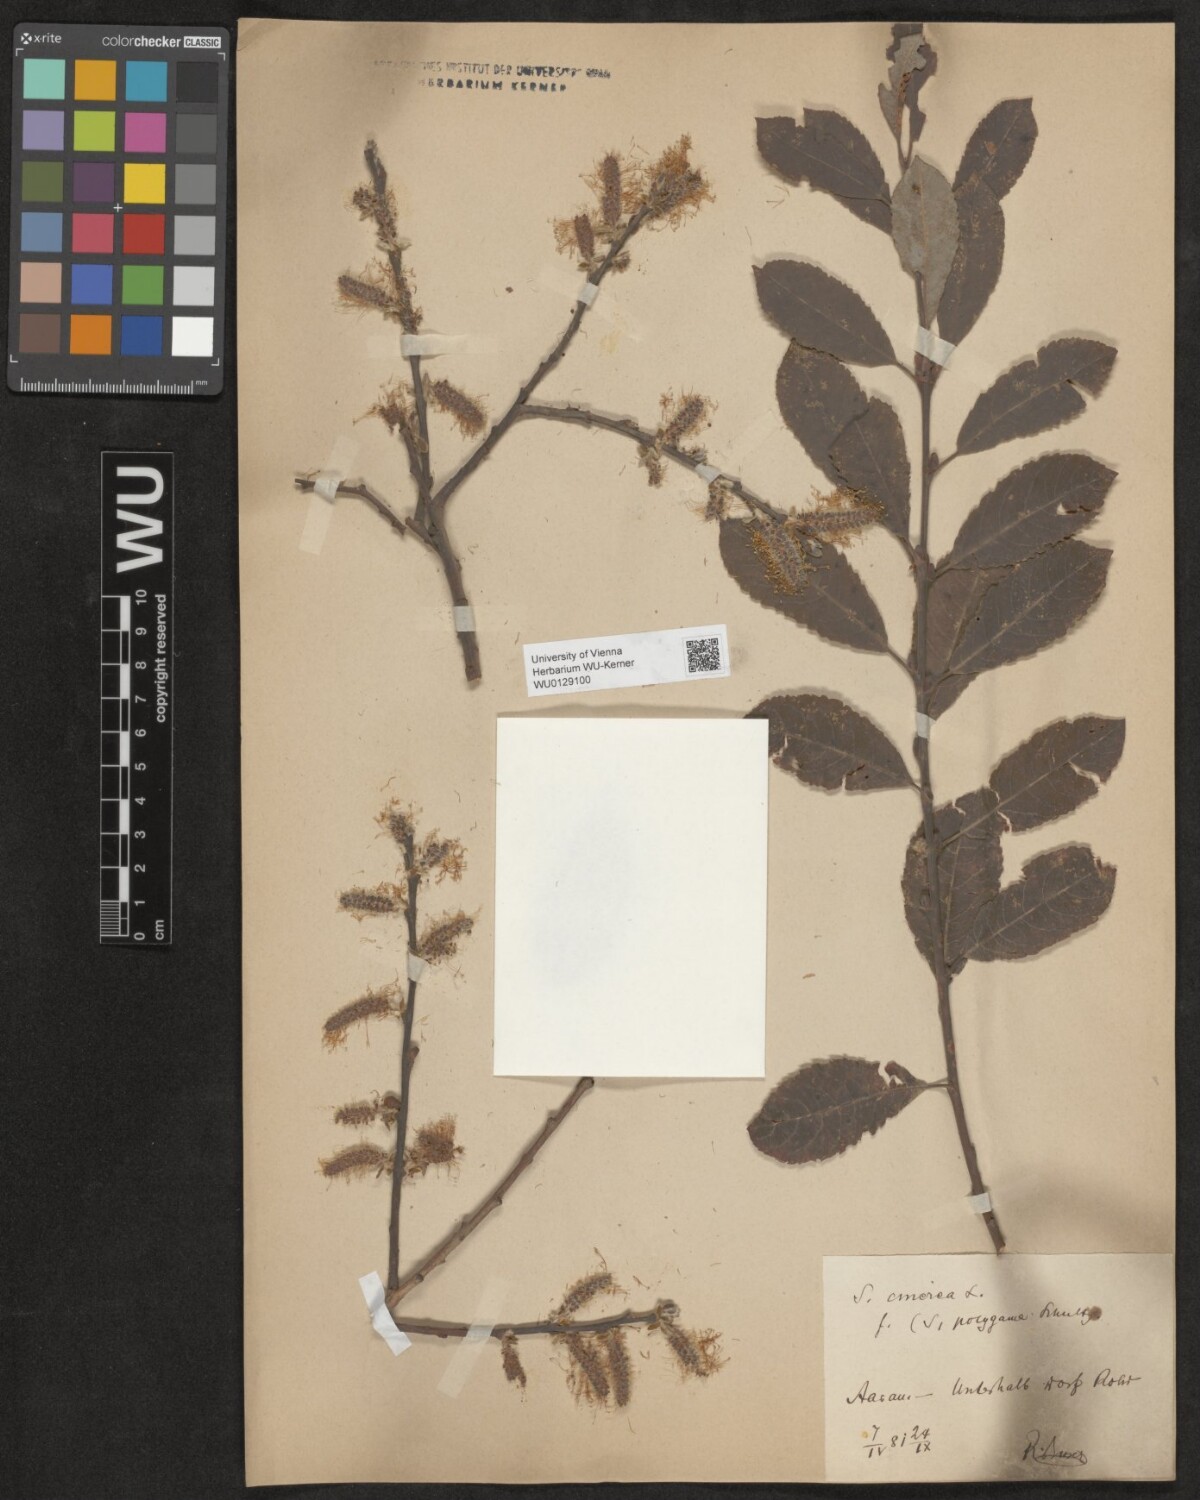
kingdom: Plantae
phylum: Tracheophyta
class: Magnoliopsida
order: Malpighiales
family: Salicaceae
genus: Salix
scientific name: Salix cinerea
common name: Common sallow
